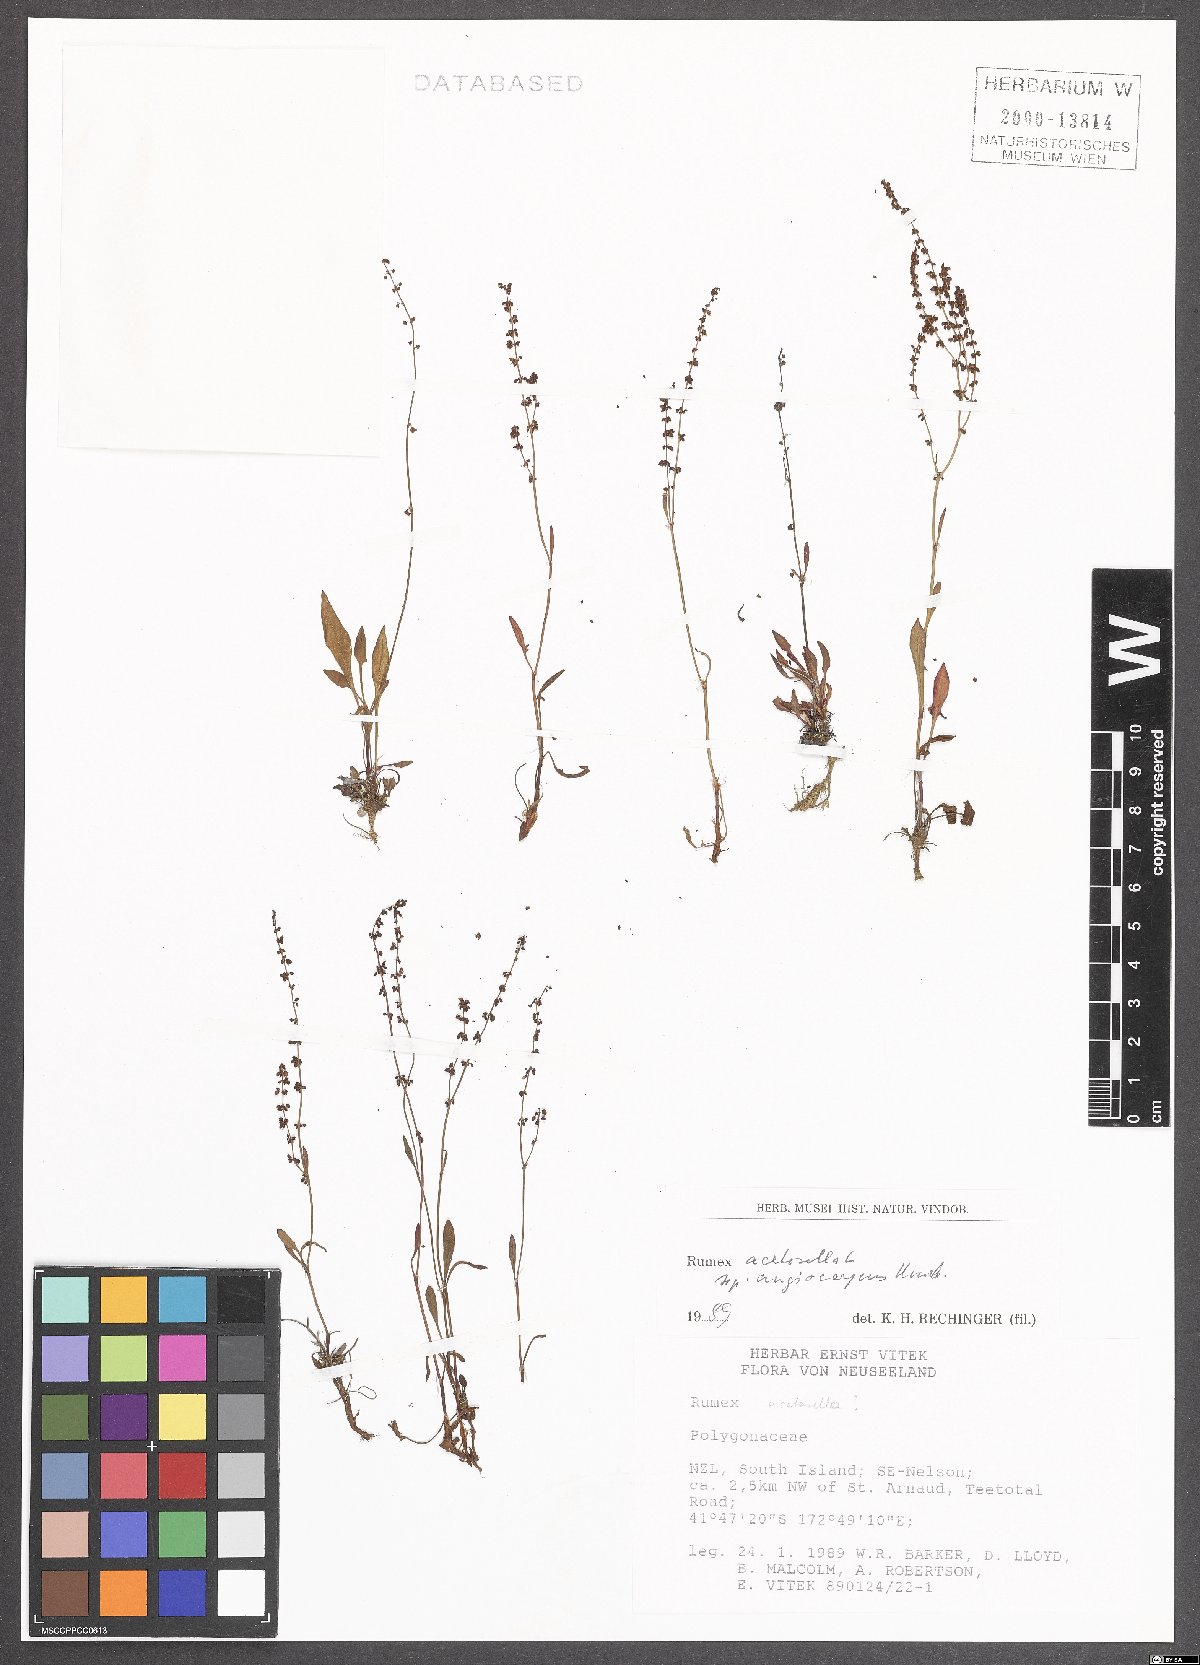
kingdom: Plantae
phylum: Tracheophyta
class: Magnoliopsida
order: Caryophyllales
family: Polygonaceae
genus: Rumex
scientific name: Rumex acetosella
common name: Common sheep sorrel
